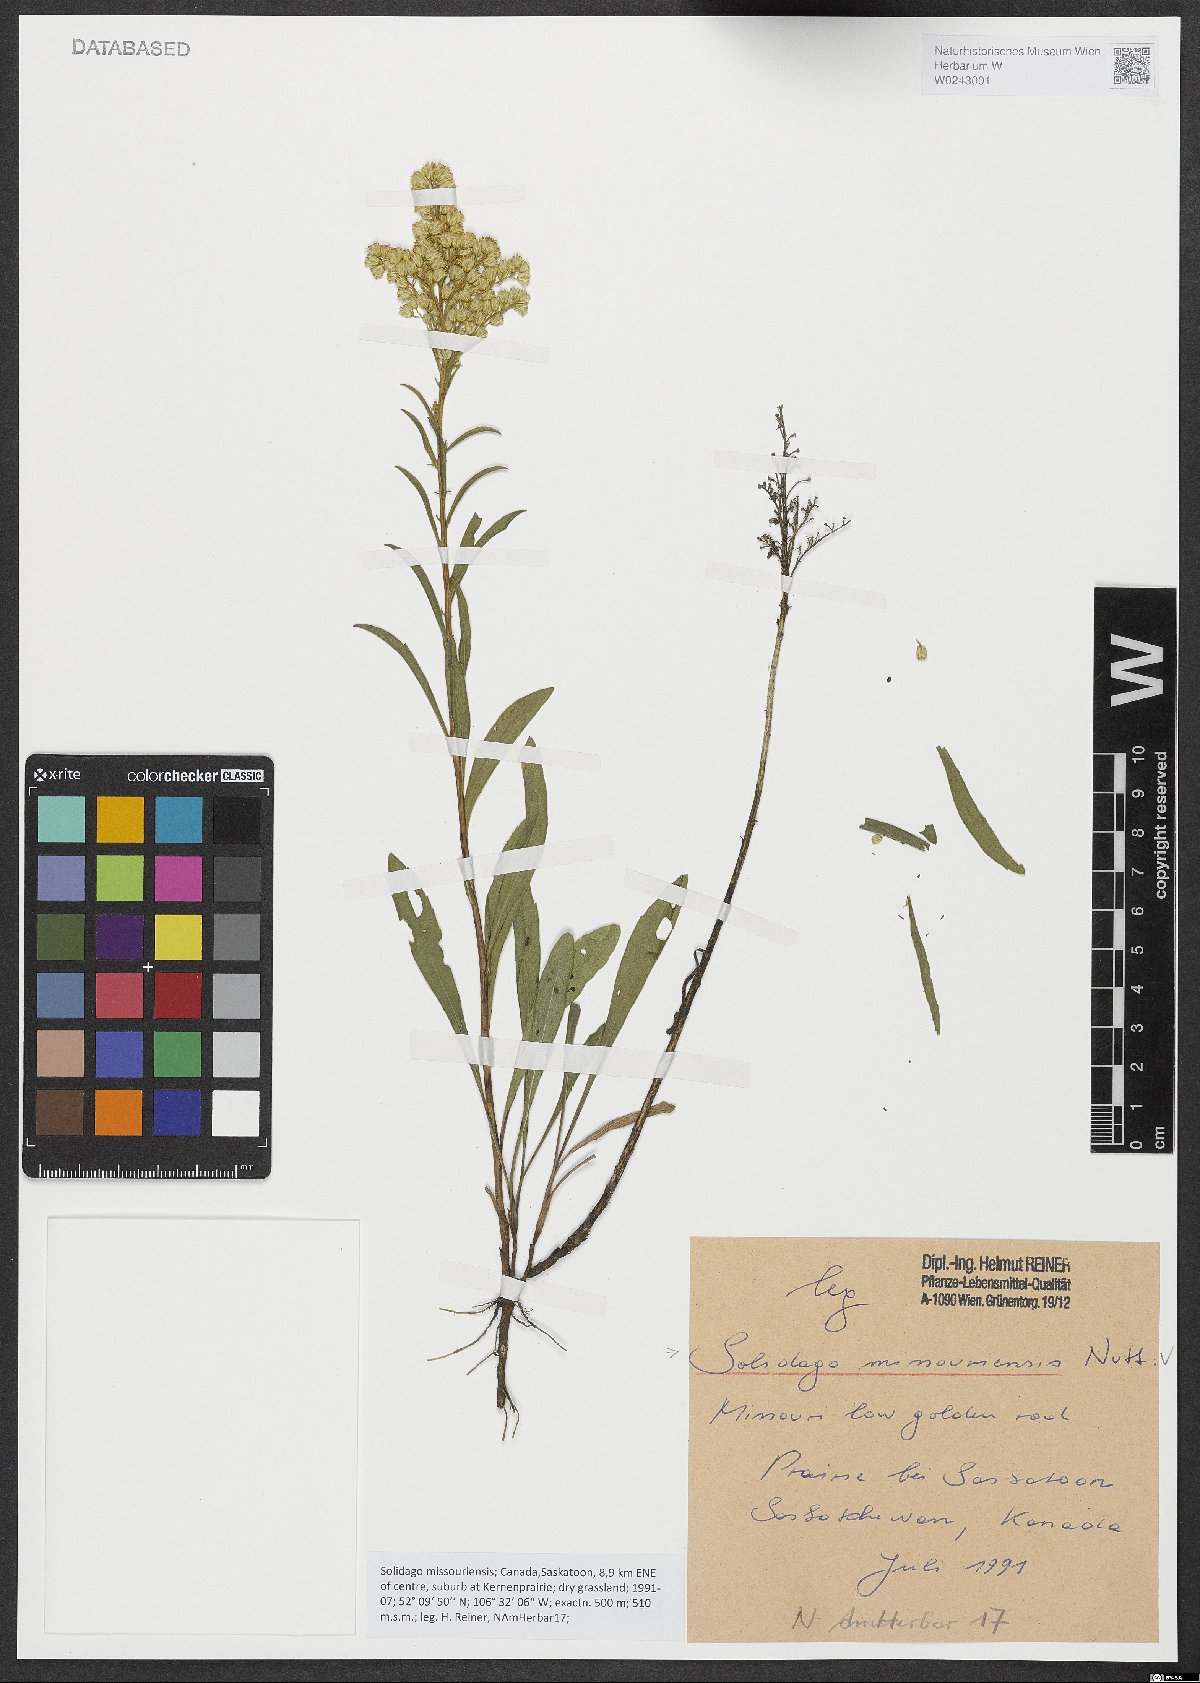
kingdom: Plantae
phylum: Tracheophyta
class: Magnoliopsida
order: Asterales
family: Asteraceae
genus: Solidago
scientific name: Solidago missouriensis
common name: Prairie goldenrod
